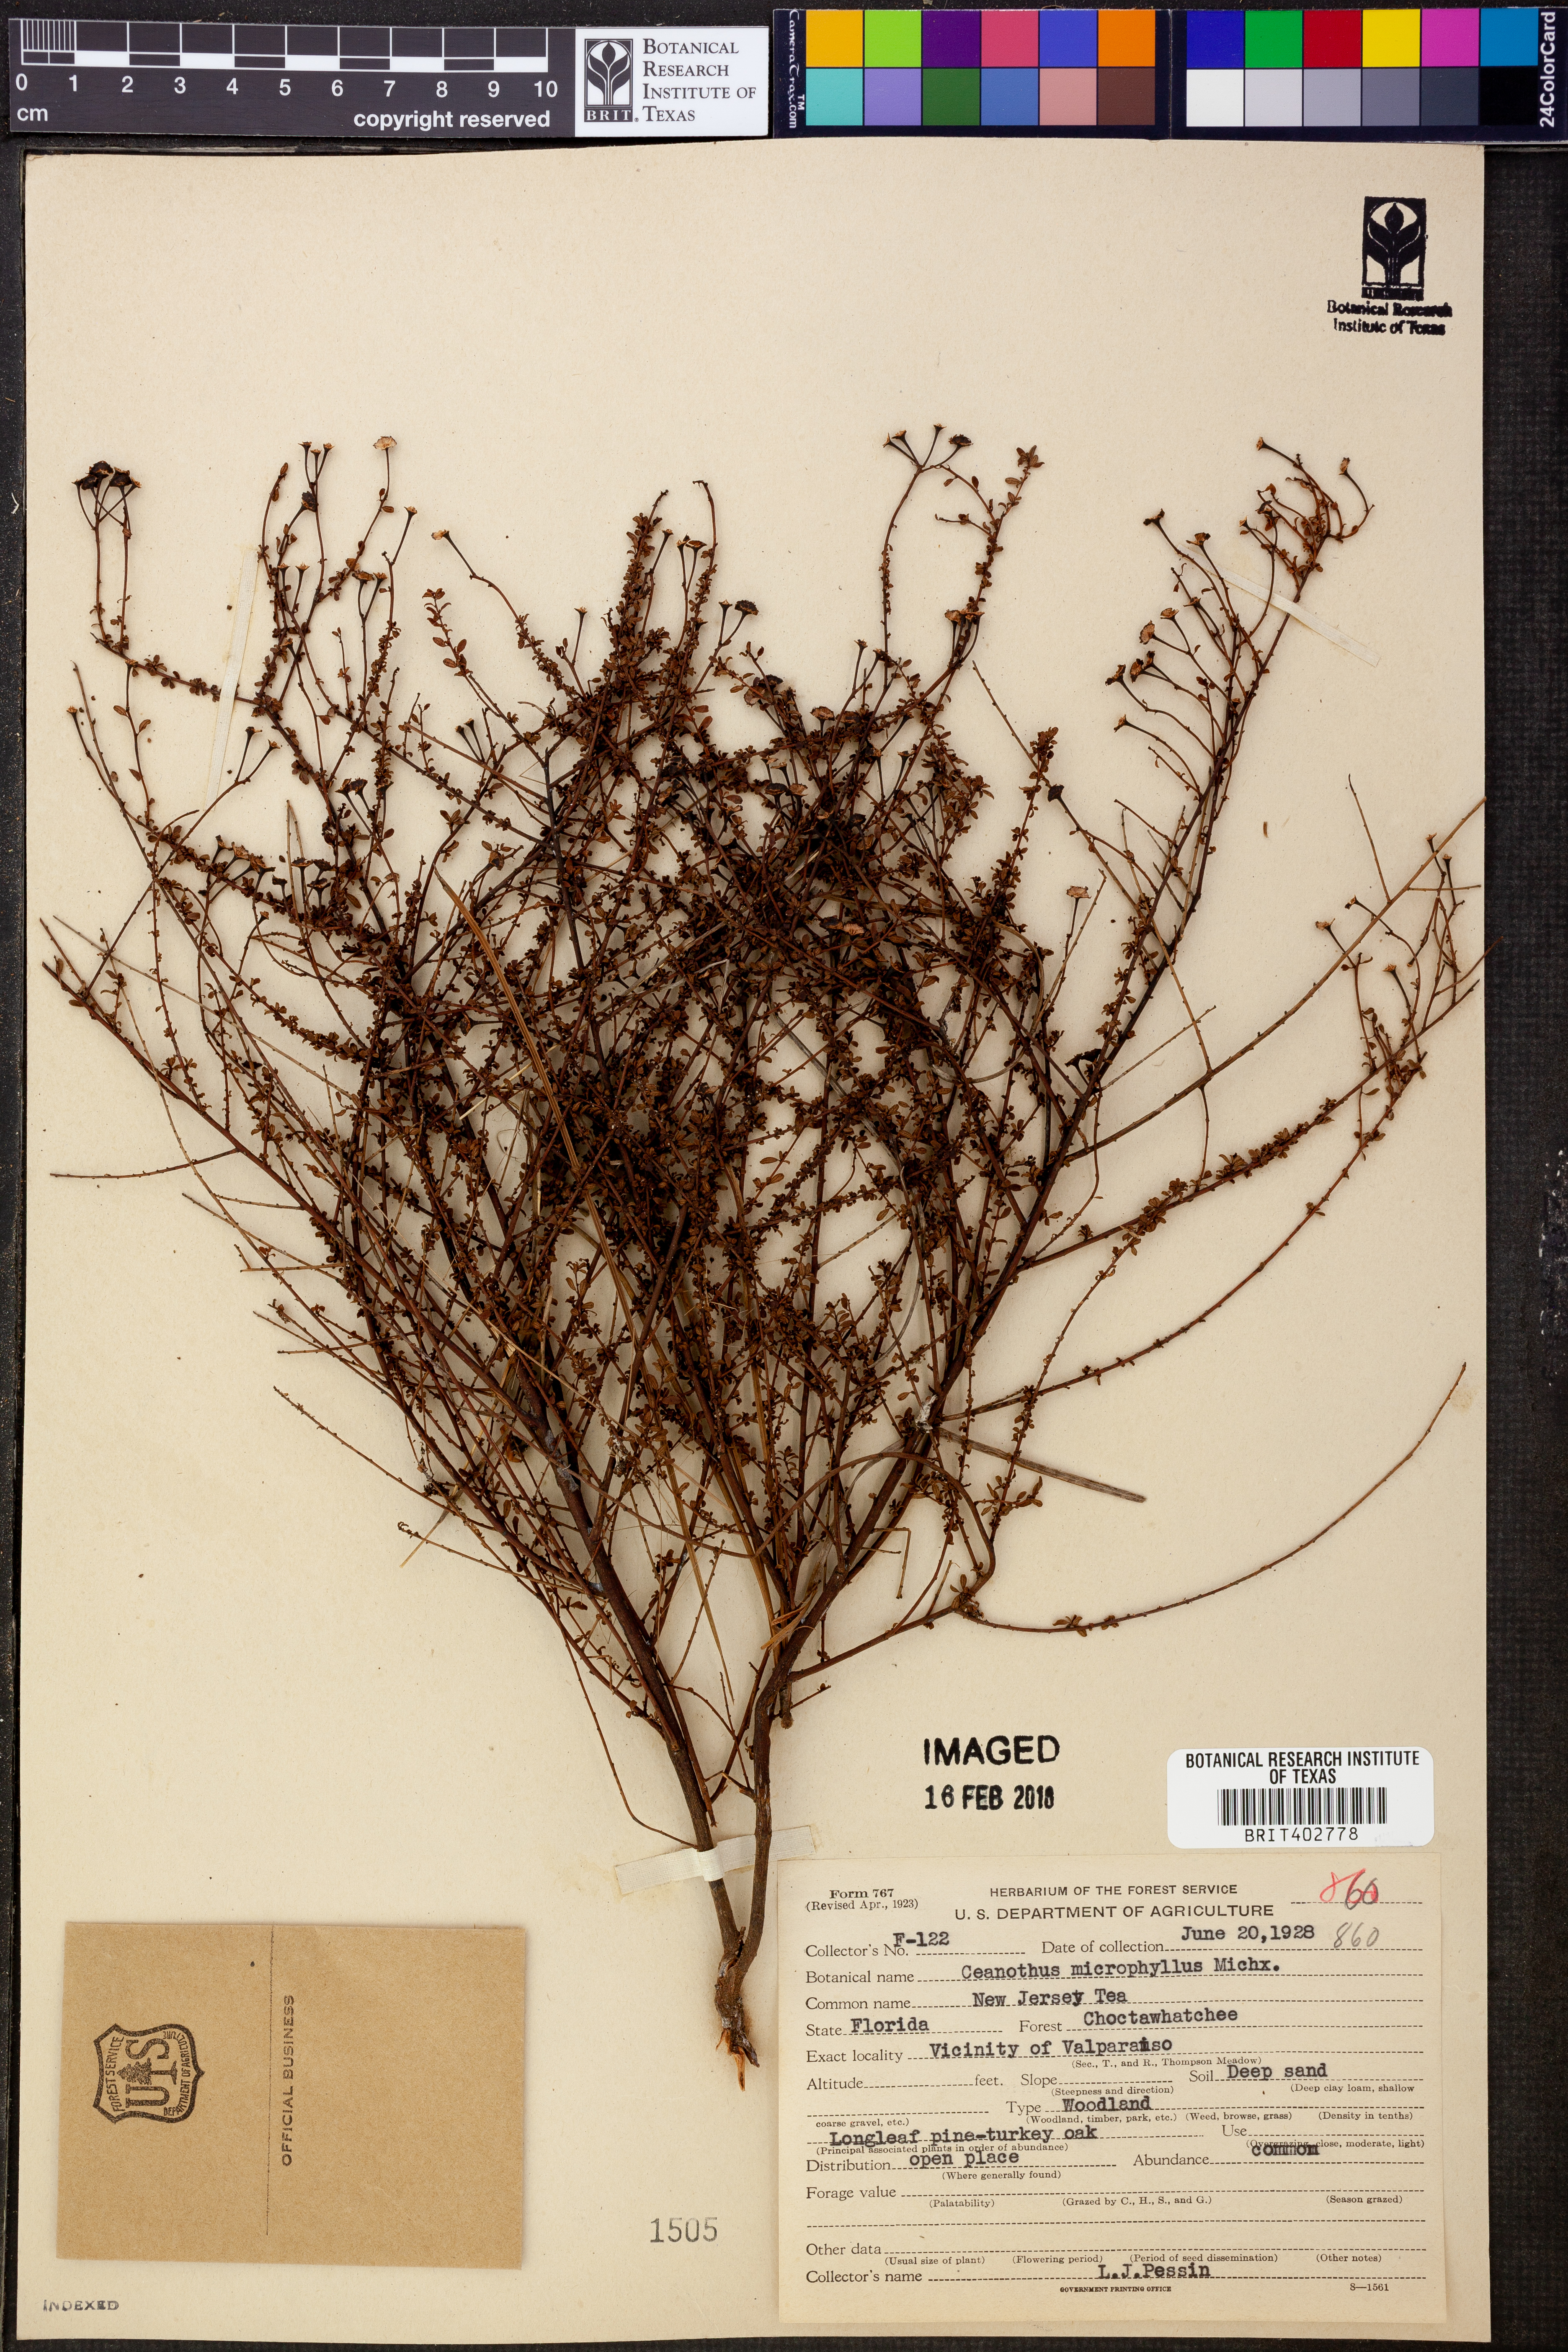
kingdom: Plantae
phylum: Tracheophyta
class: Magnoliopsida
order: Rosales
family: Rhamnaceae
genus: Ceanothus
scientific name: Ceanothus microphyllus
